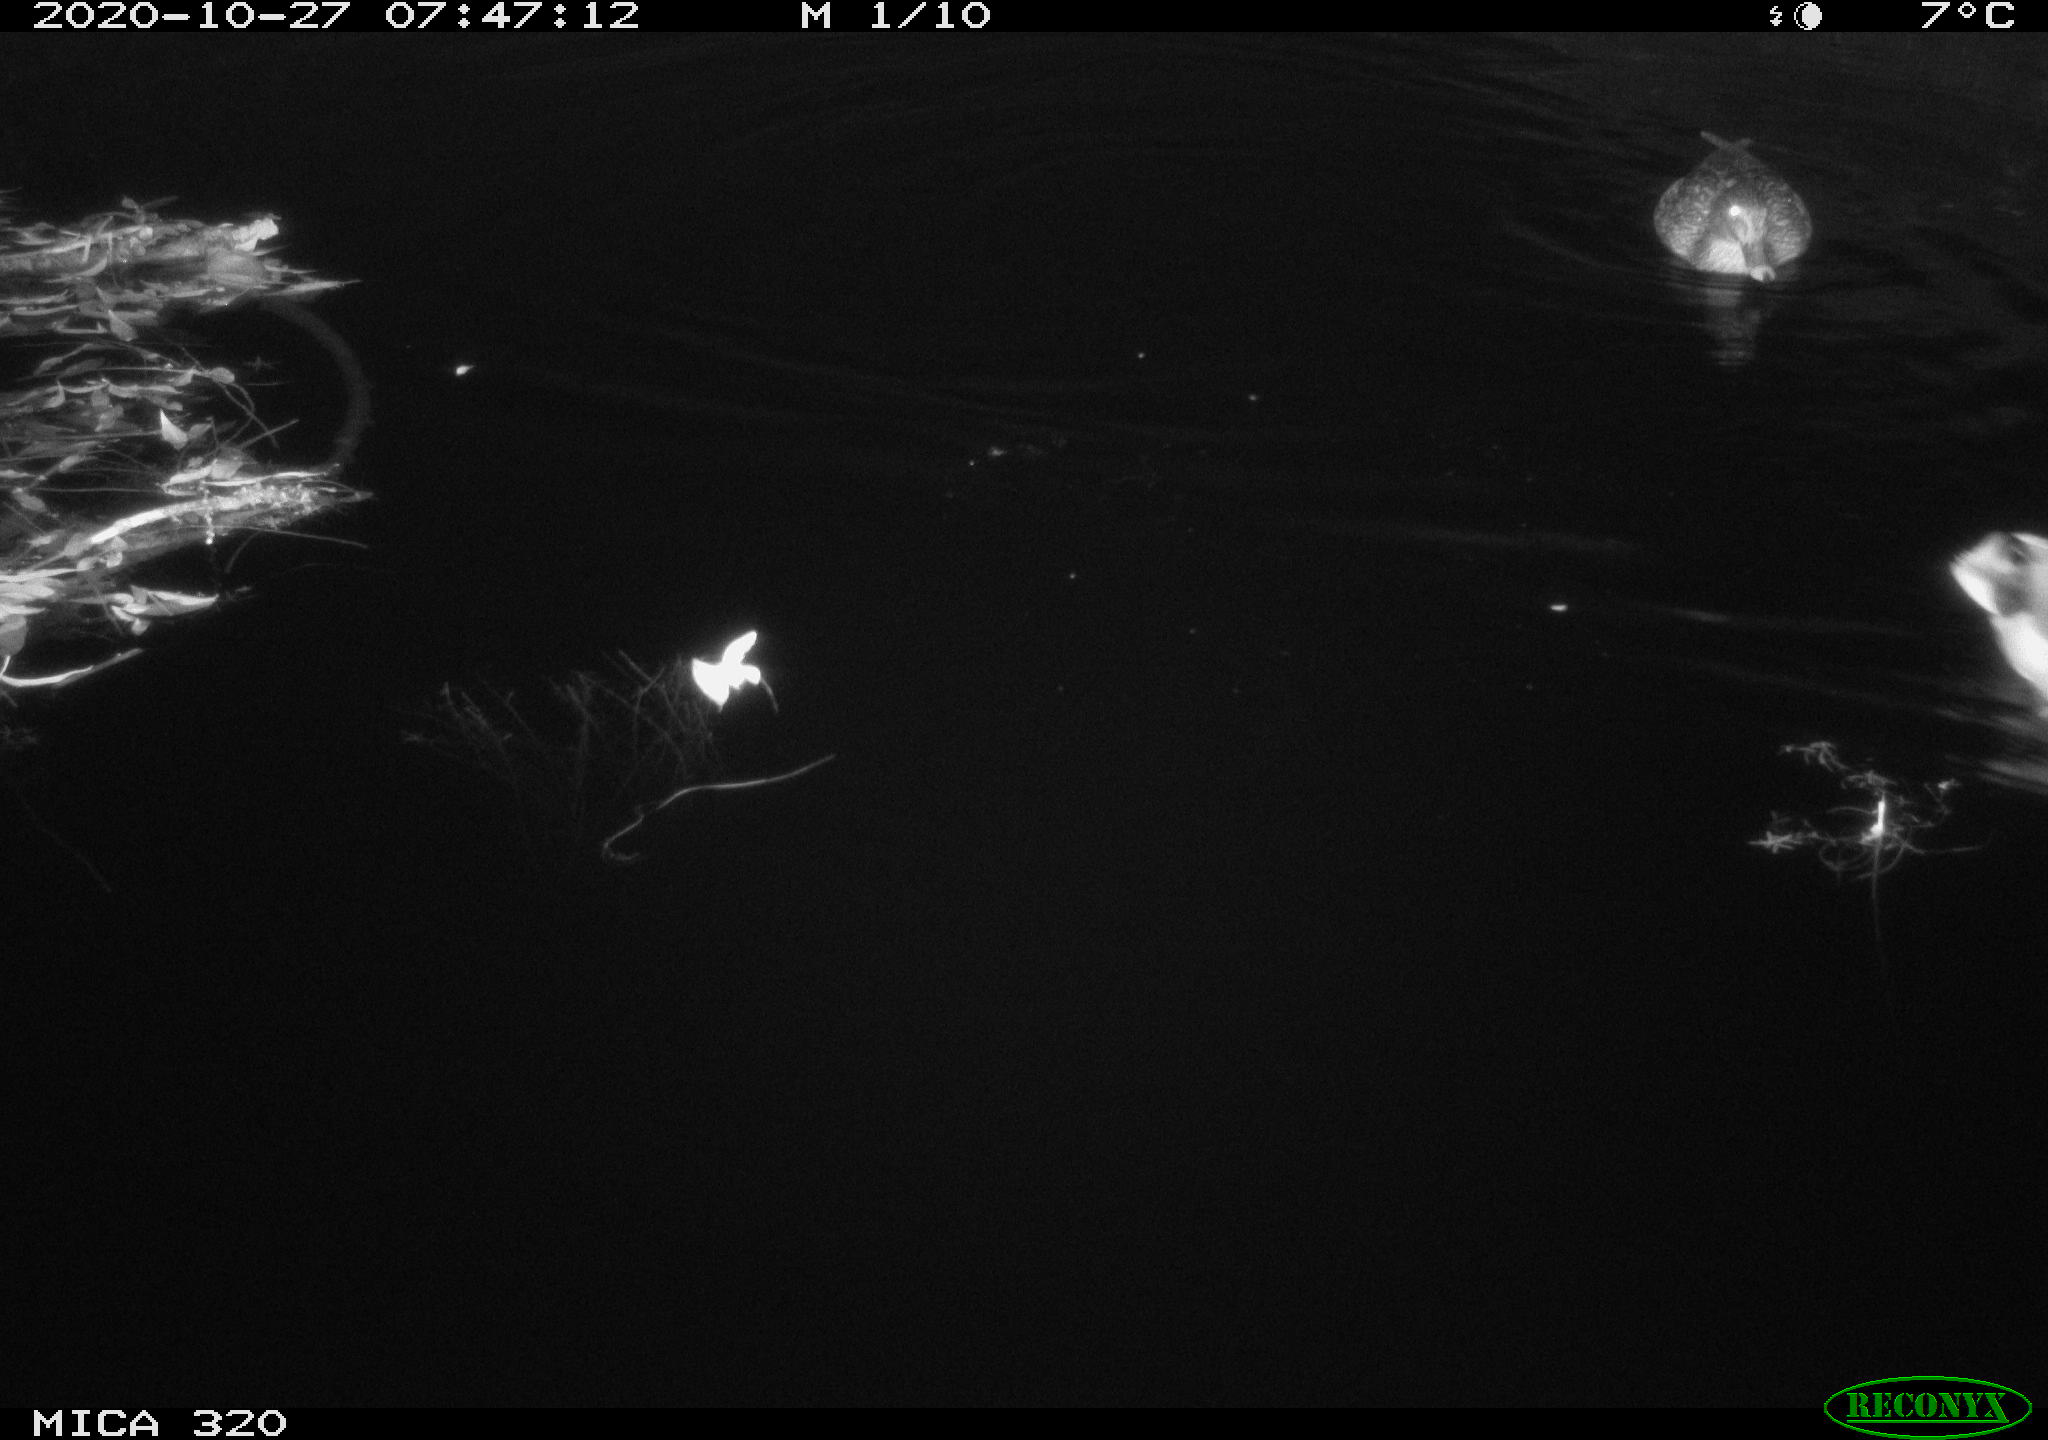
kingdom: Animalia
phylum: Chordata
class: Aves
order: Anseriformes
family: Anatidae
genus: Anas
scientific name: Anas platyrhynchos
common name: Mallard
